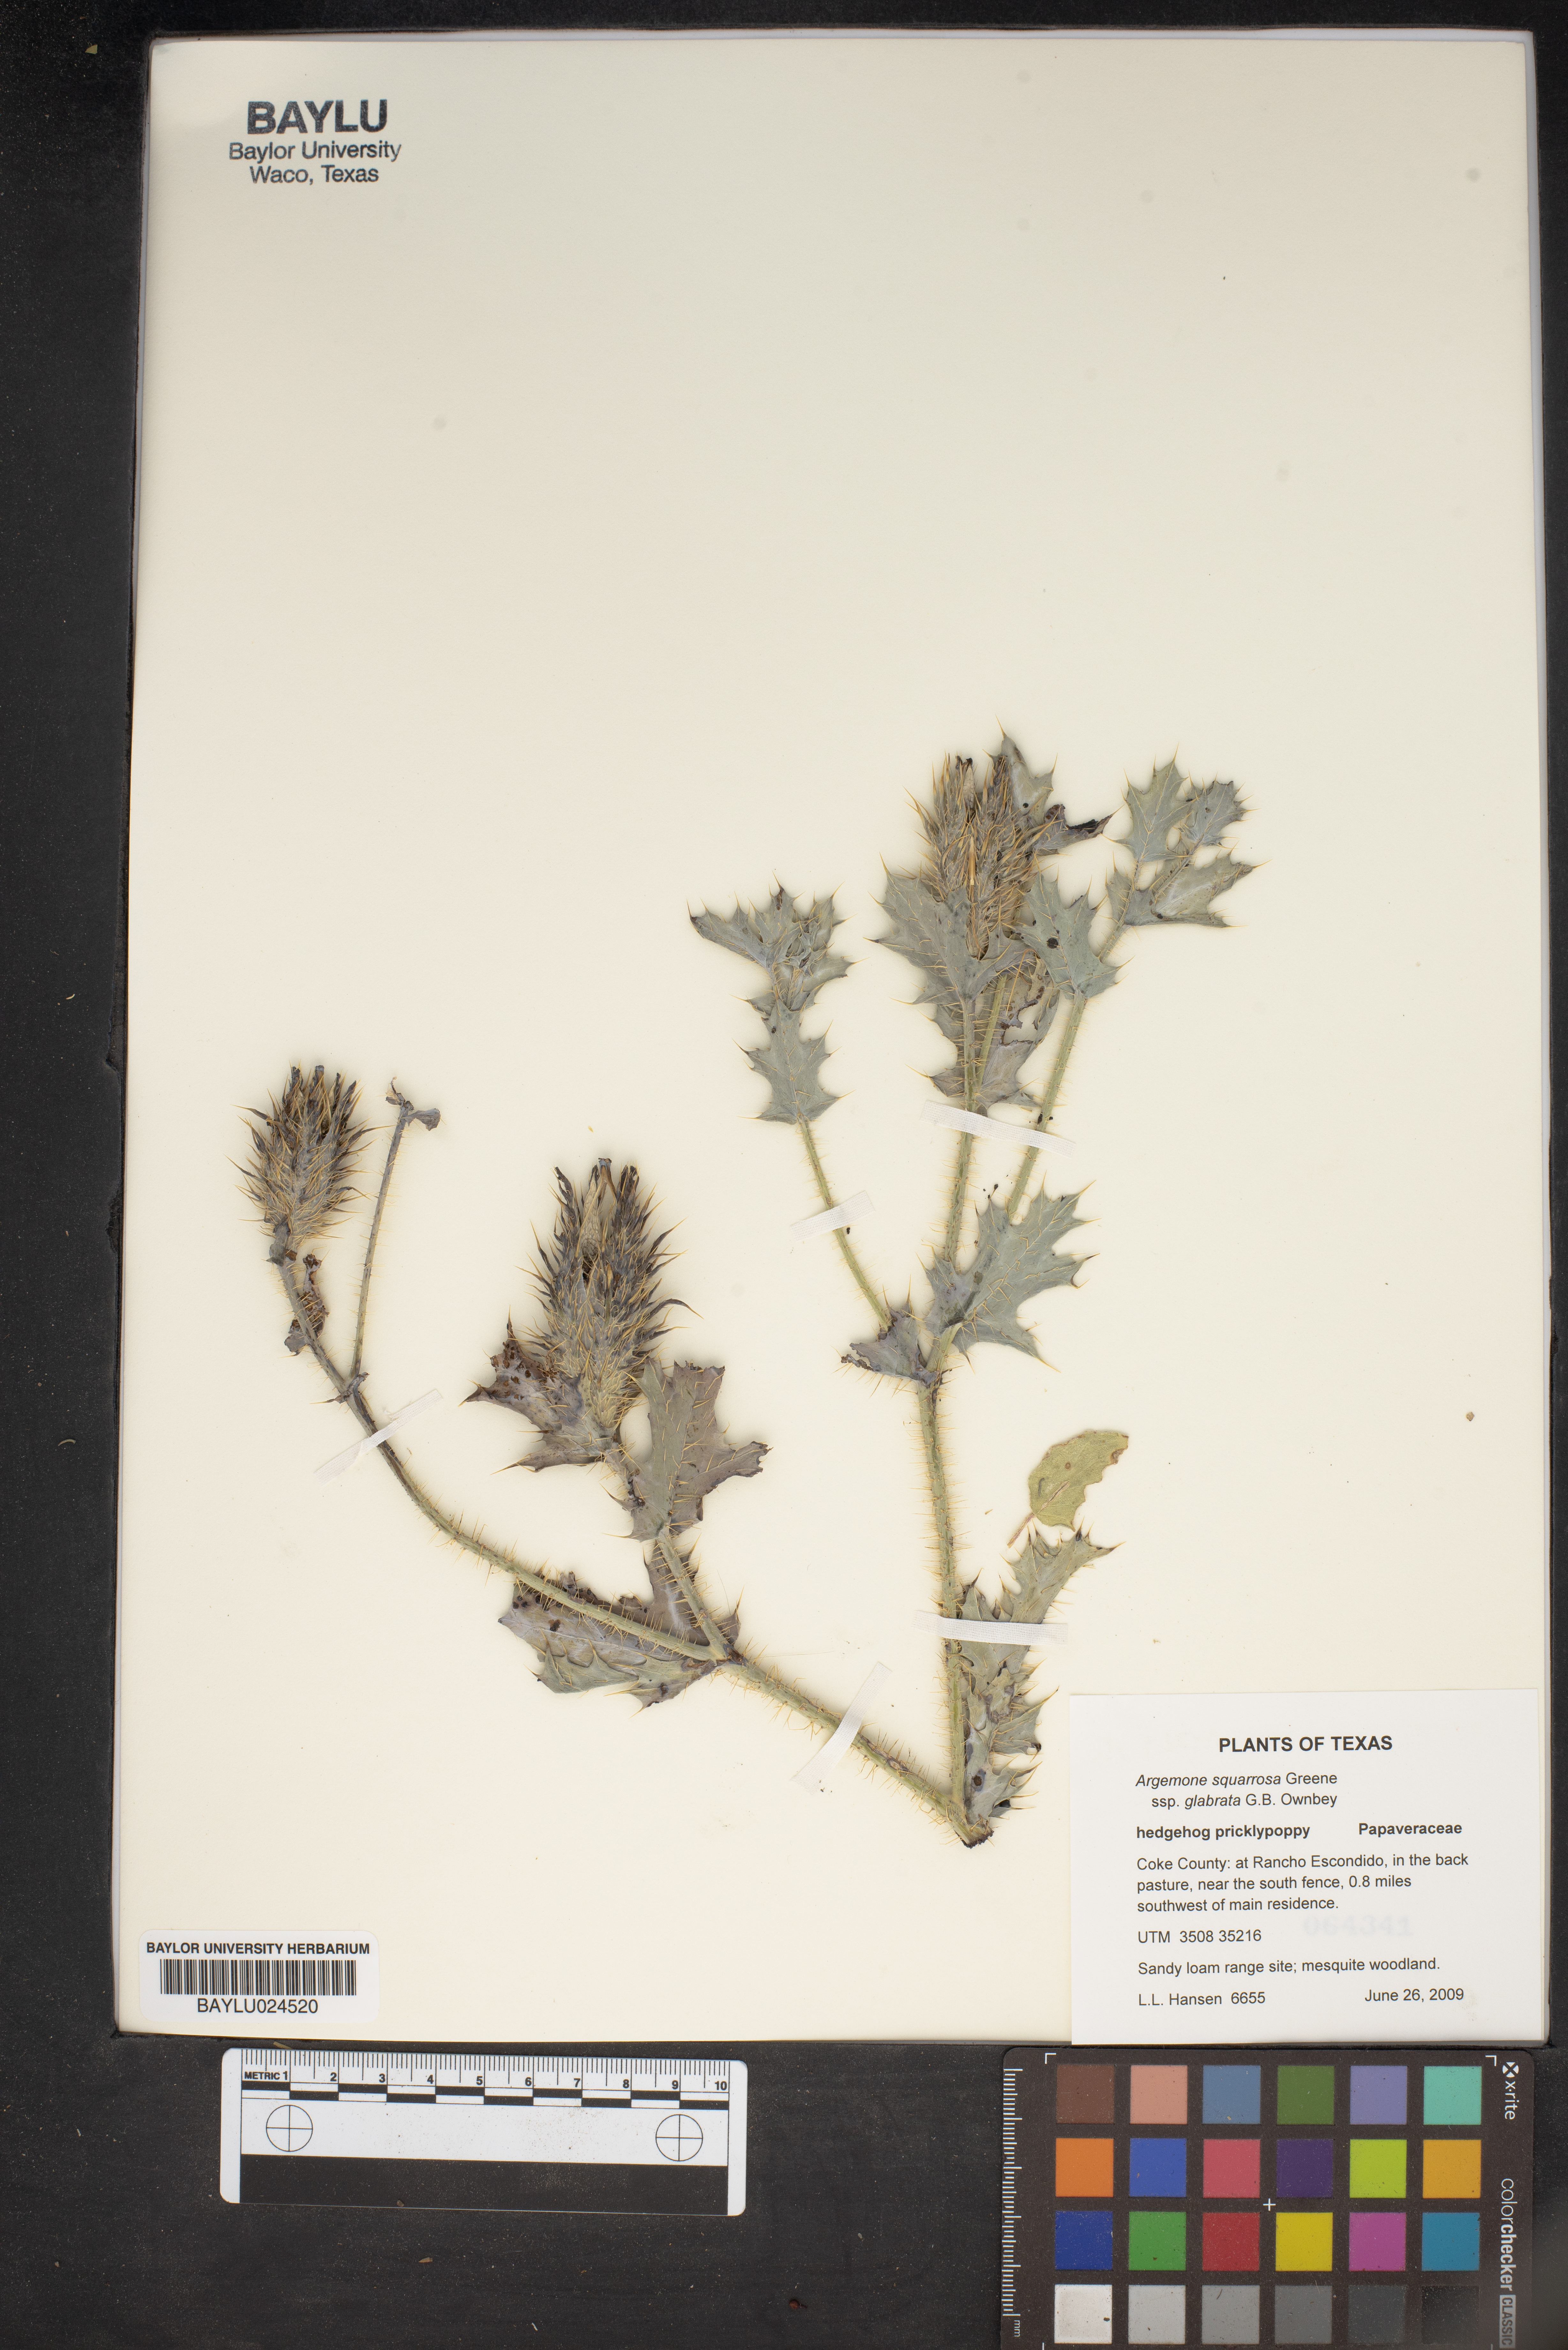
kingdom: Plantae
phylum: Tracheophyta
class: Magnoliopsida
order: Ranunculales
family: Papaveraceae
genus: Argemone
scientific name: Argemone squarrosa
